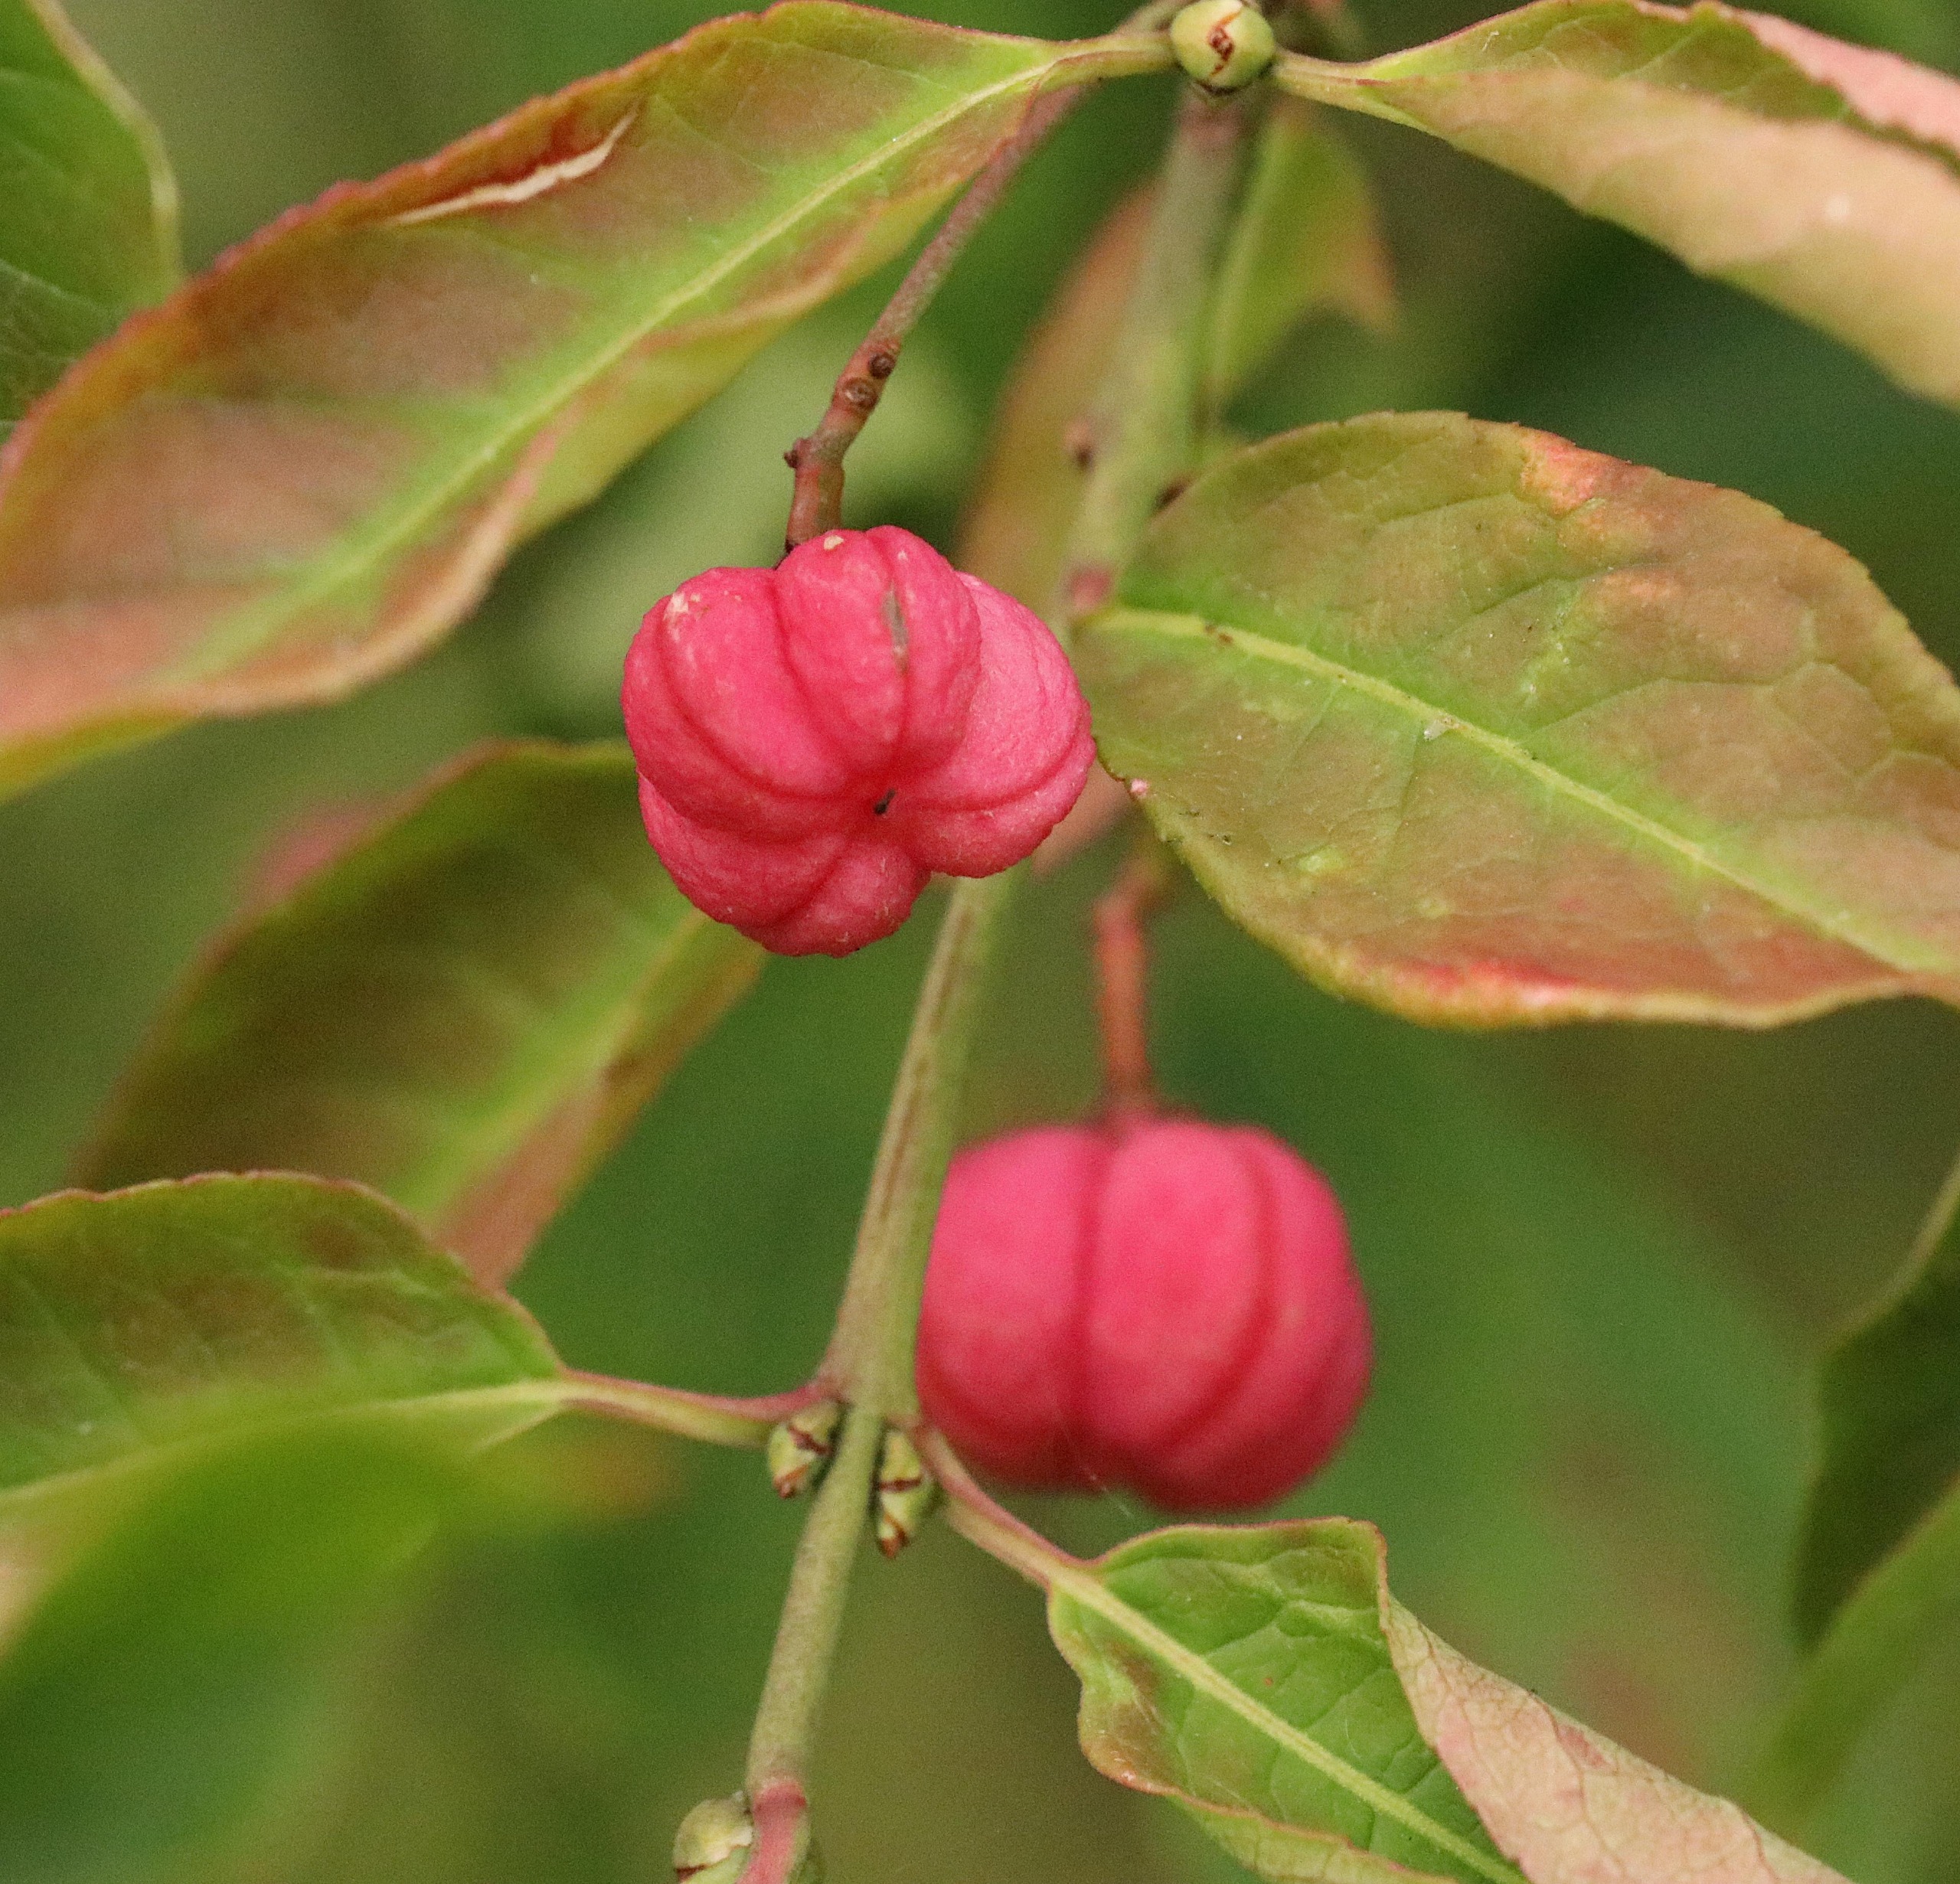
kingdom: Plantae
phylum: Tracheophyta
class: Magnoliopsida
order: Celastrales
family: Celastraceae
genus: Euonymus
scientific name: Euonymus europaeus
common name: Benved
